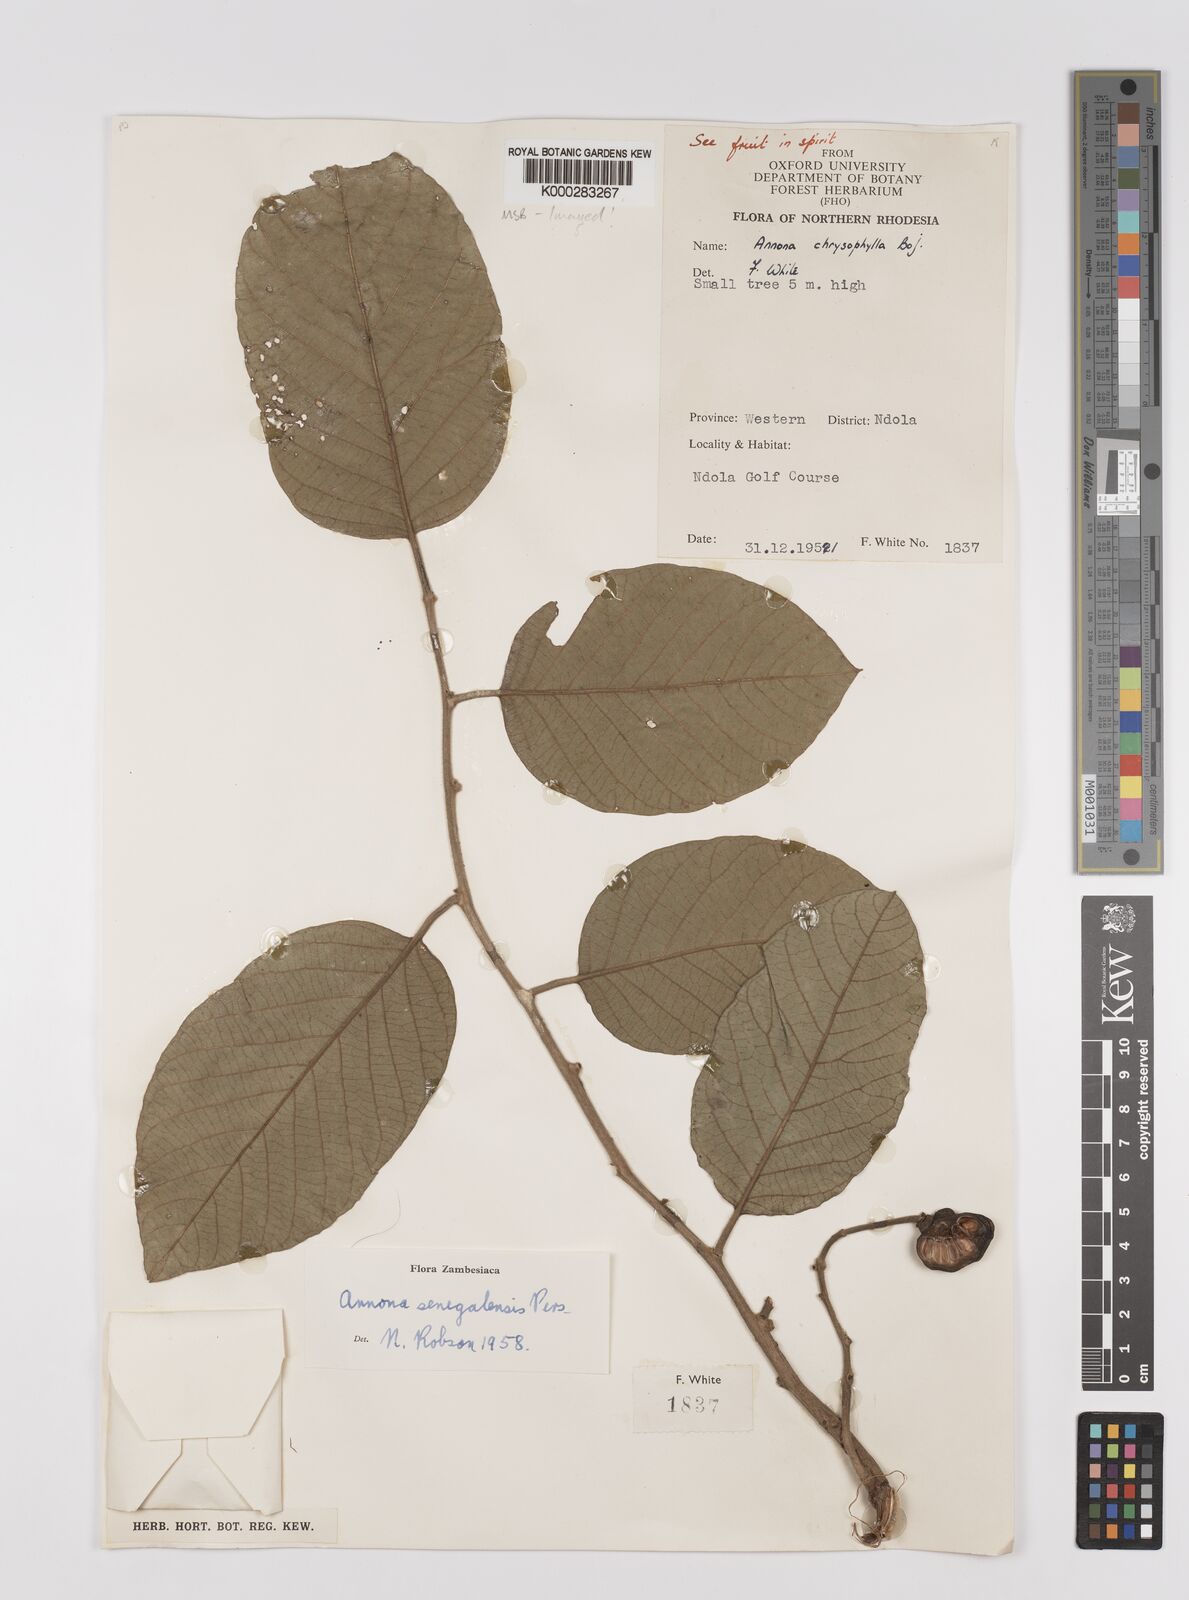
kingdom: Plantae
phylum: Tracheophyta
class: Magnoliopsida
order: Magnoliales
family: Annonaceae
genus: Annona
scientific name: Annona senegalensis
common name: Wild custard-apple
